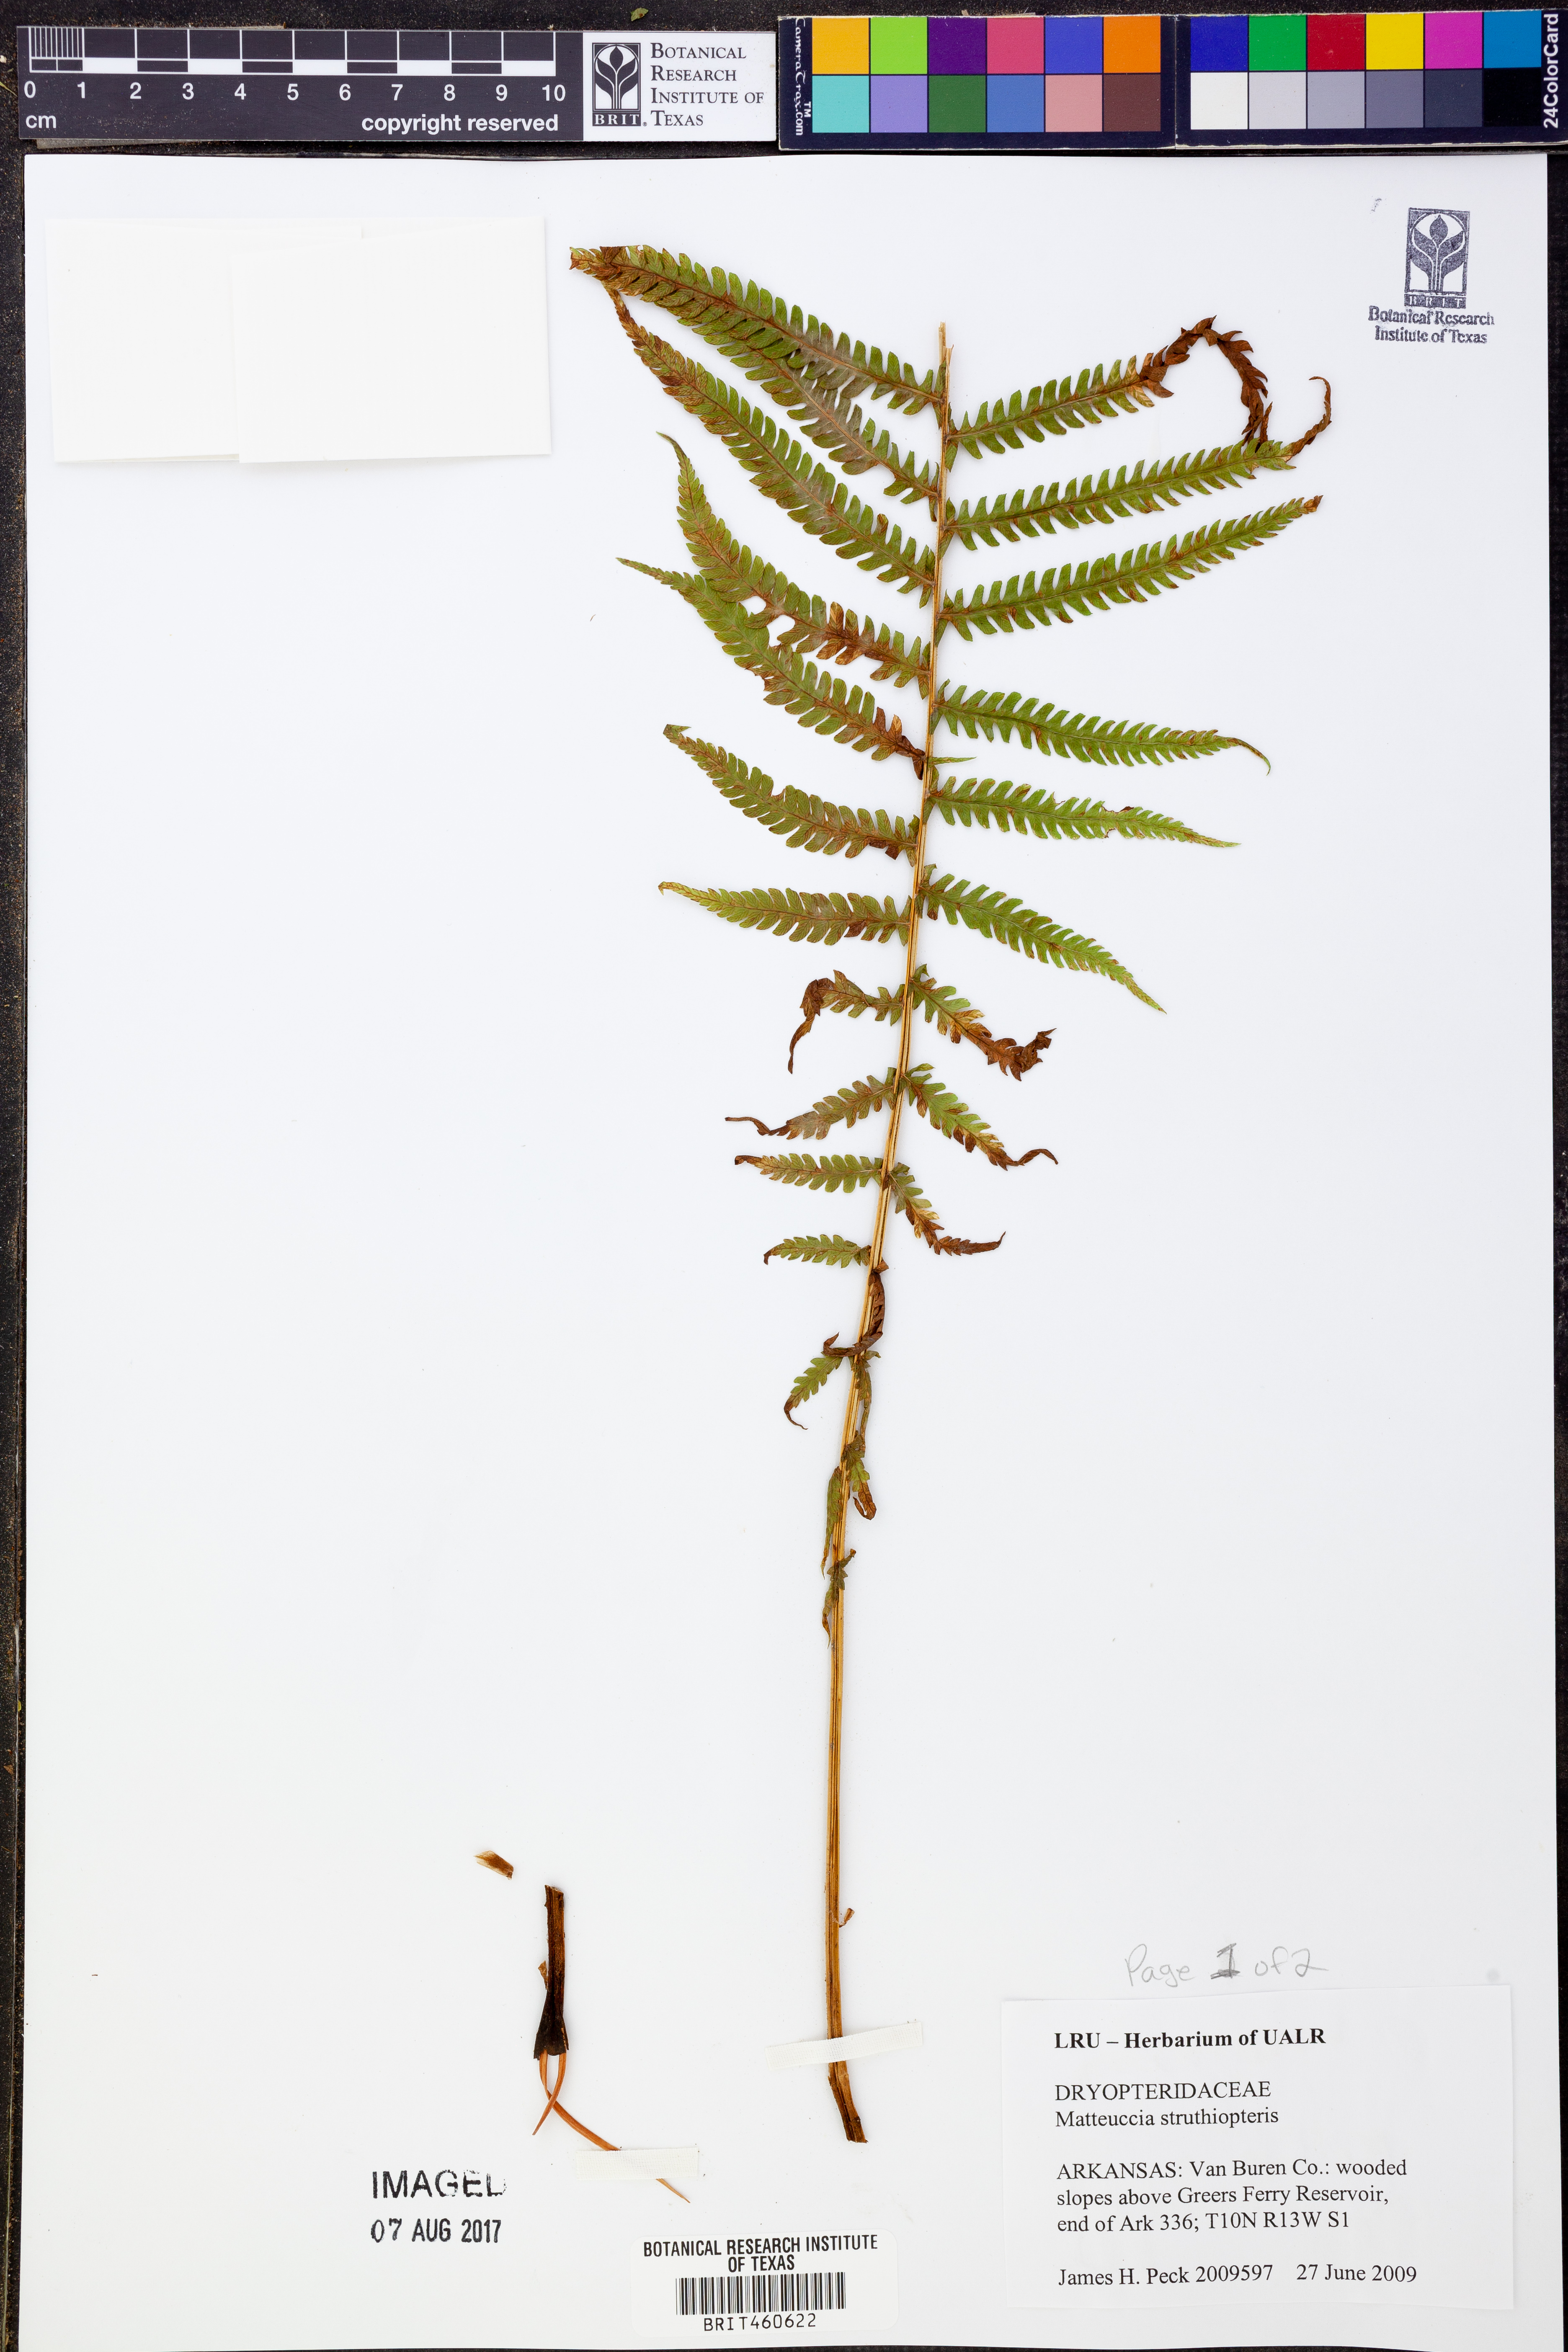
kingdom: Plantae
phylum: Tracheophyta
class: Polypodiopsida
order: Polypodiales
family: Onocleaceae
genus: Matteuccia
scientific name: Matteuccia struthiopteris
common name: Ostrich fern
